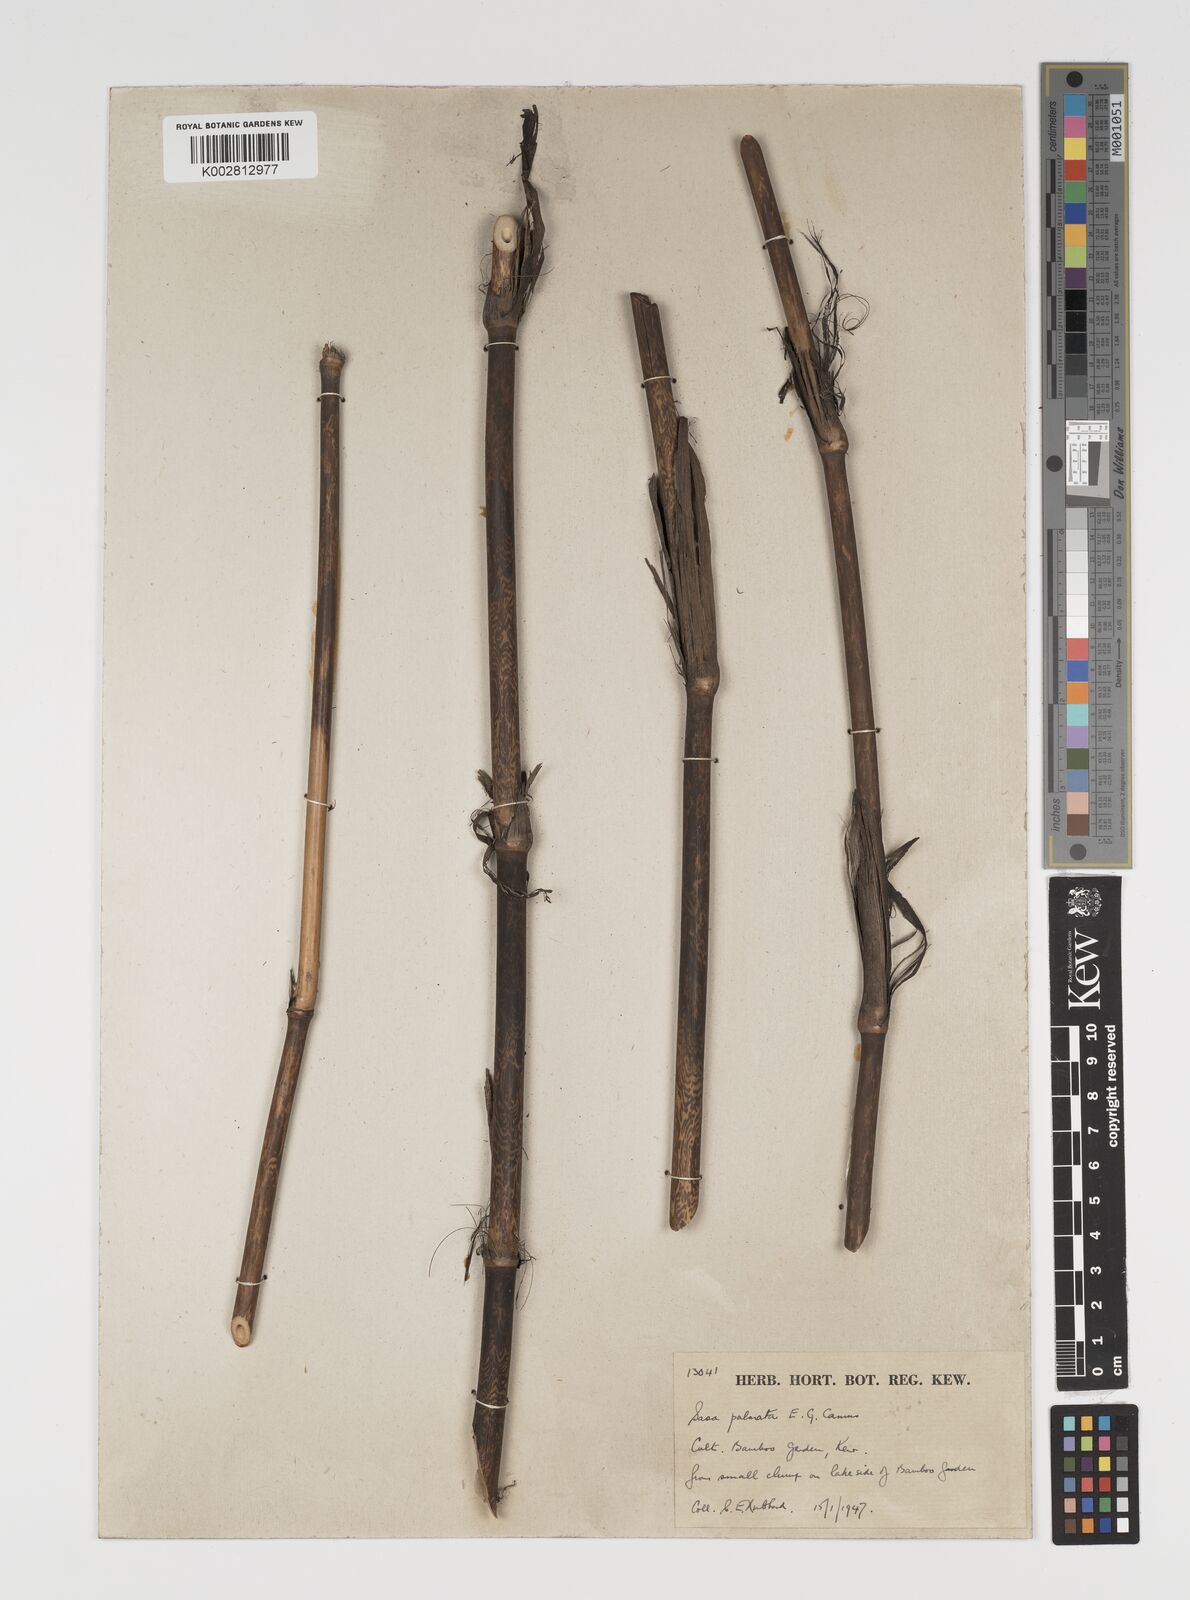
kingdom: Plantae
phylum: Tracheophyta
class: Liliopsida
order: Poales
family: Poaceae
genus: Sasa
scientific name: Sasa palmata
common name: Broad-leaved bamboo
